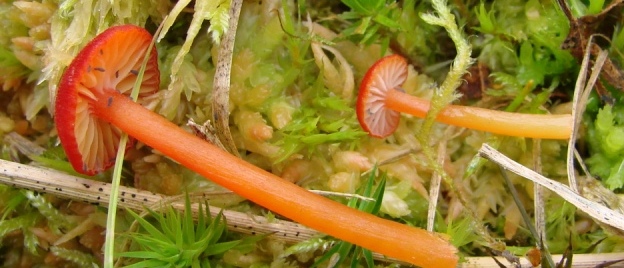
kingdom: Fungi
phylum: Basidiomycota
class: Agaricomycetes
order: Agaricales
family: Hygrophoraceae
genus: Hygrocybe
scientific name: Hygrocybe helobia
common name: hvidløgs-vokshat
